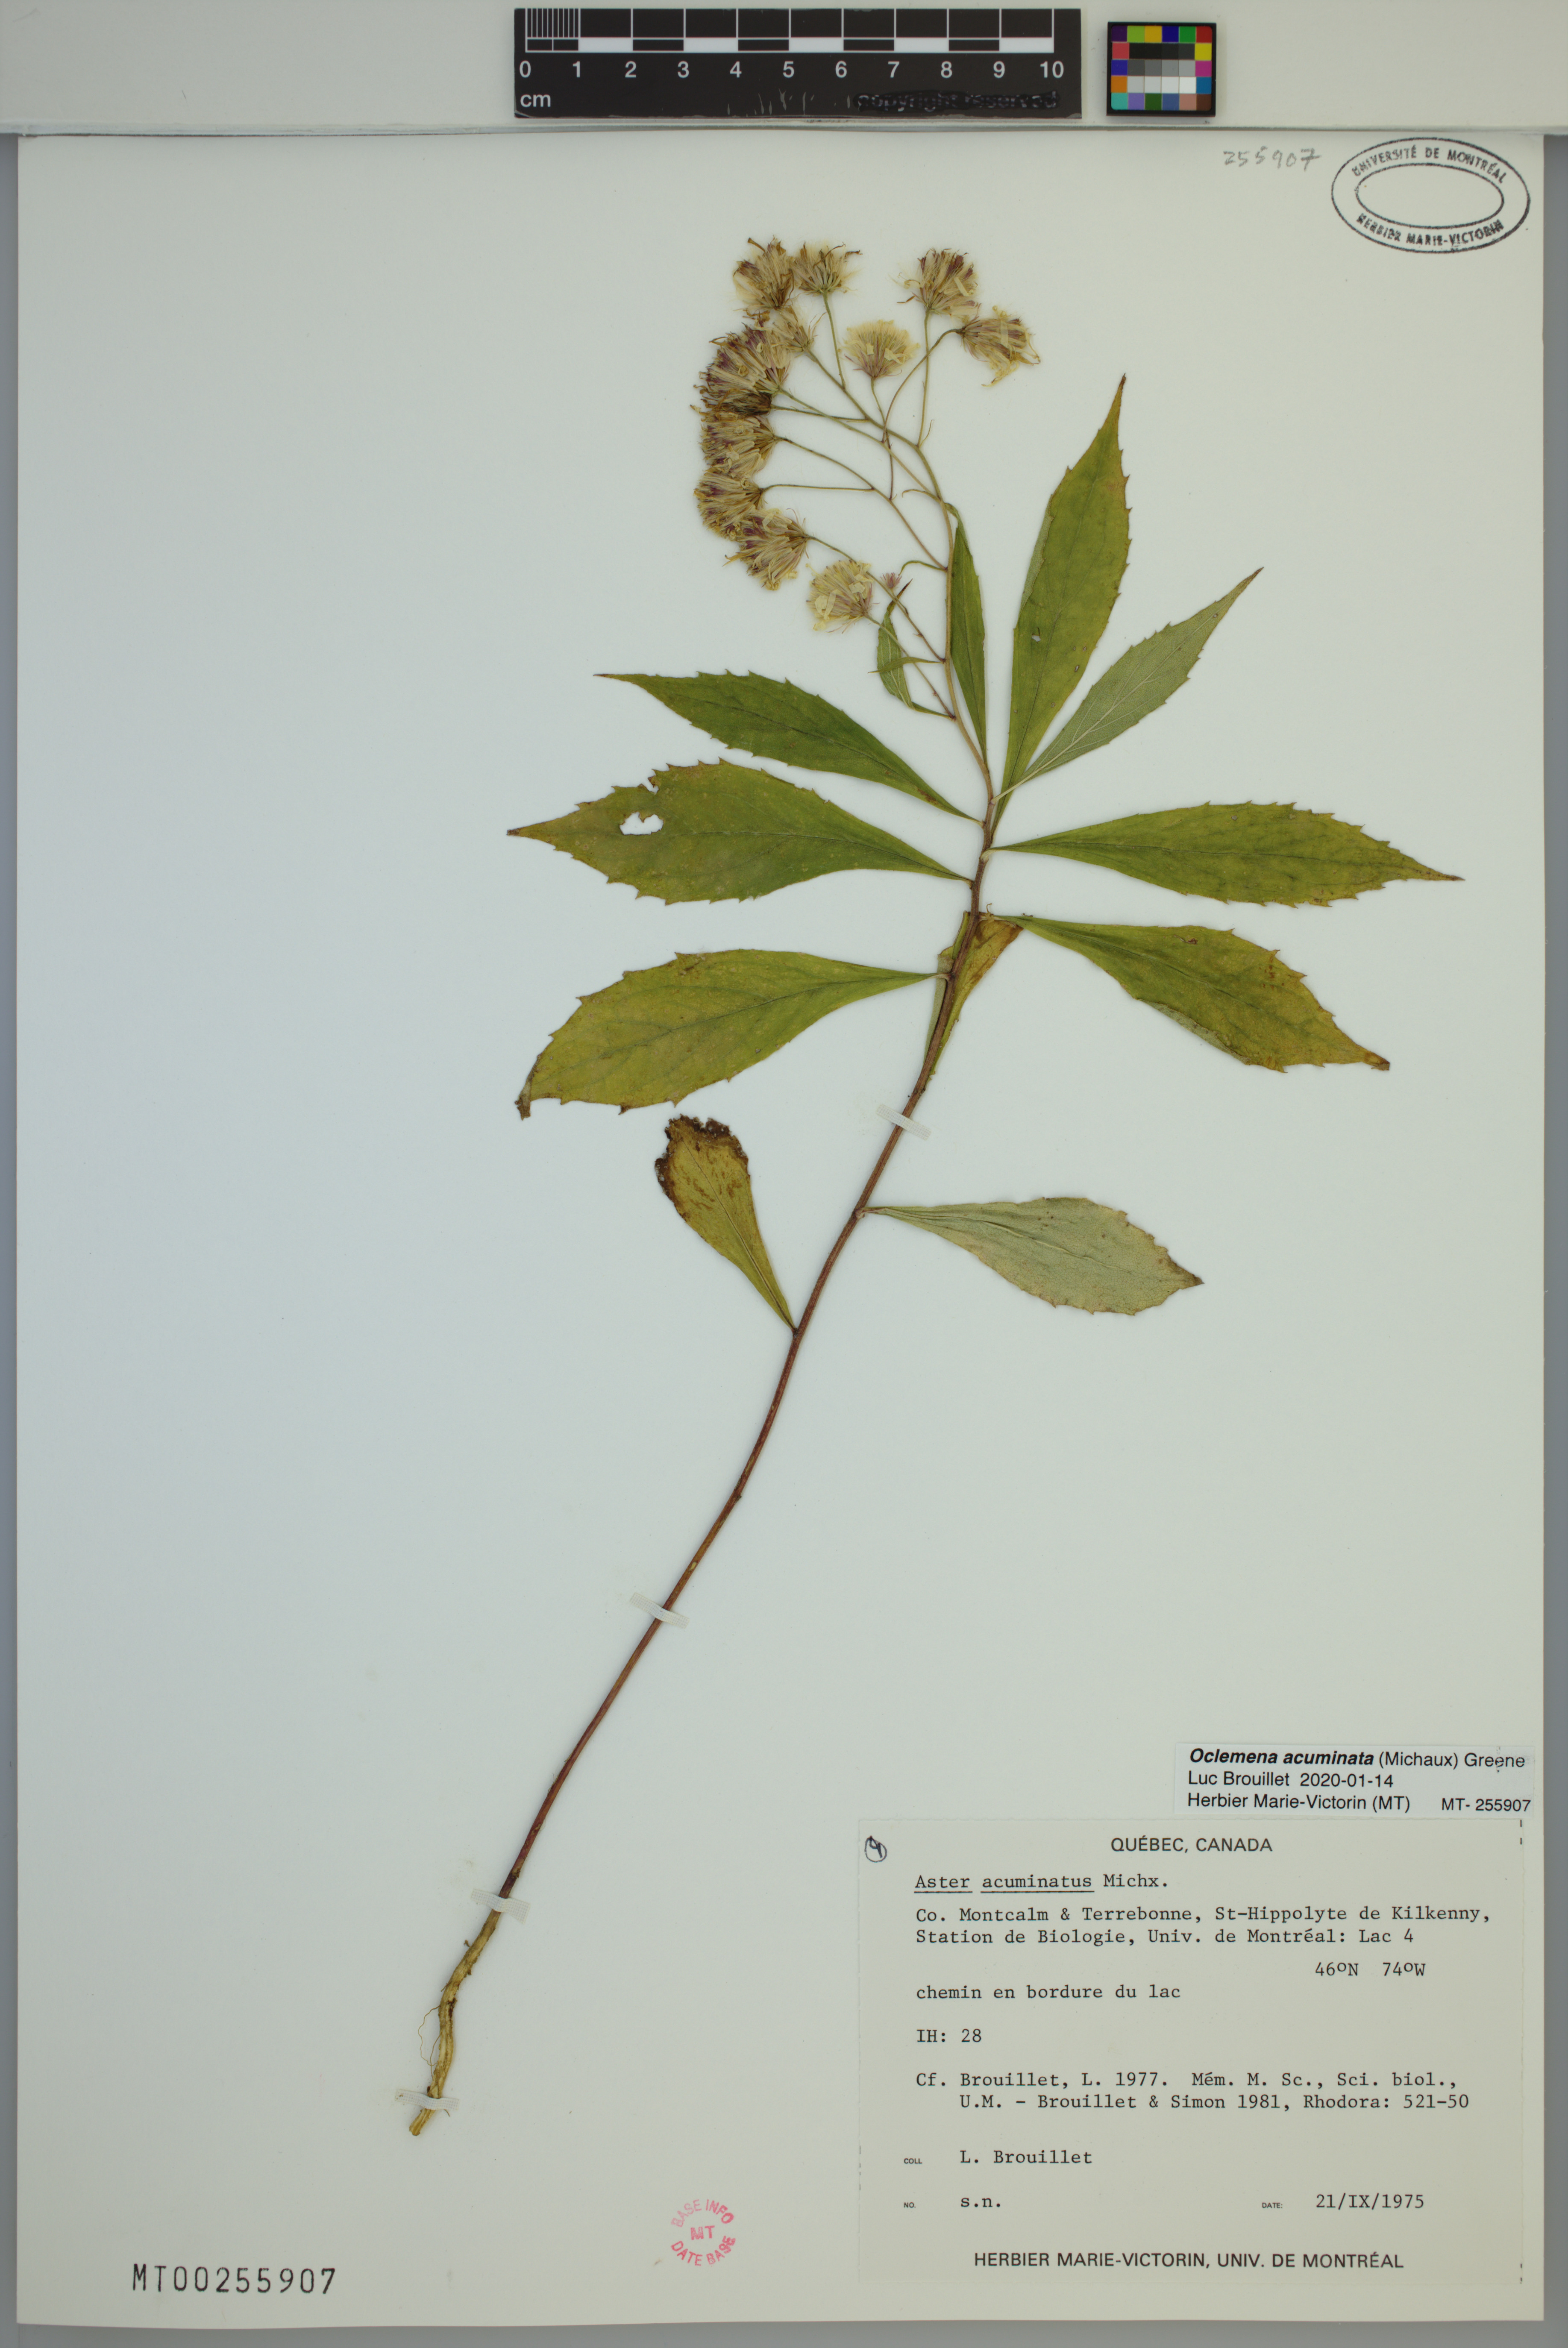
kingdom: Plantae
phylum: Tracheophyta
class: Magnoliopsida
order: Asterales
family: Asteraceae
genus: Oclemena
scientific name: Oclemena acuminata
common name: Mountain aster
